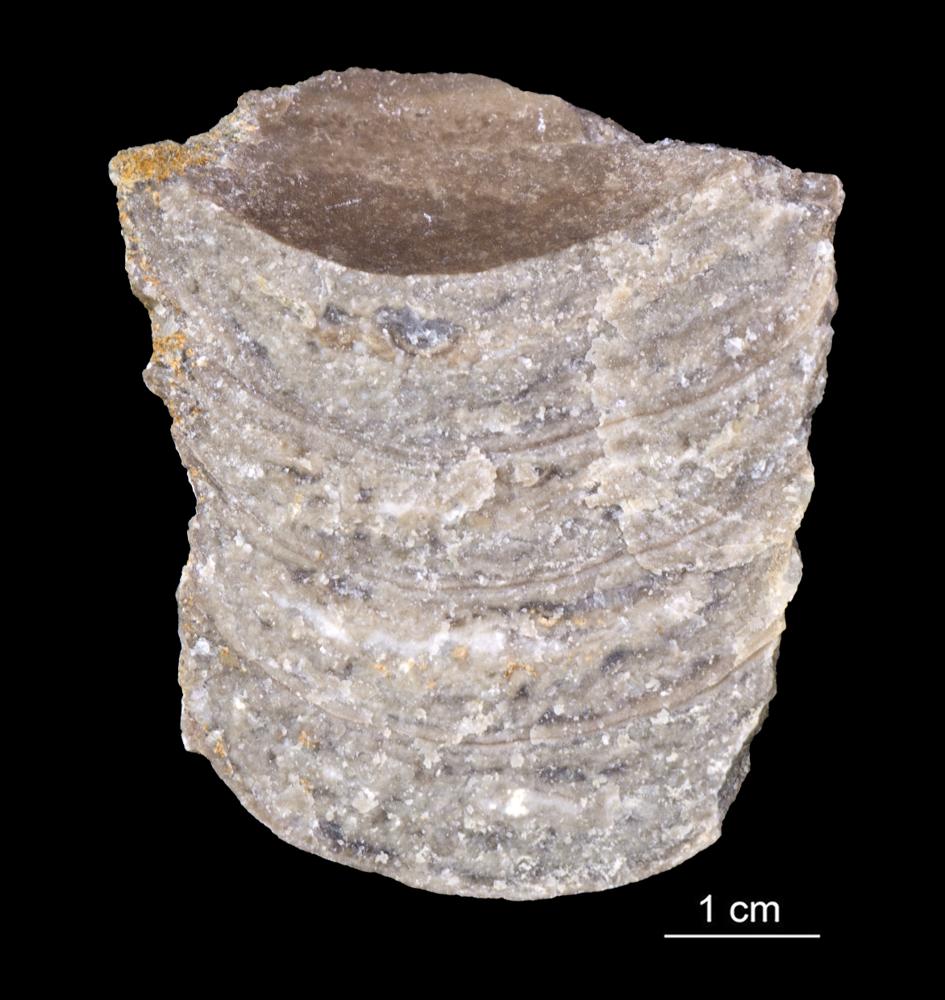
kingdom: Animalia
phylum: Mollusca
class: Cephalopoda
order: Orthocerida
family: Orthoceratidae
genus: Orthoceras
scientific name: Orthoceras
